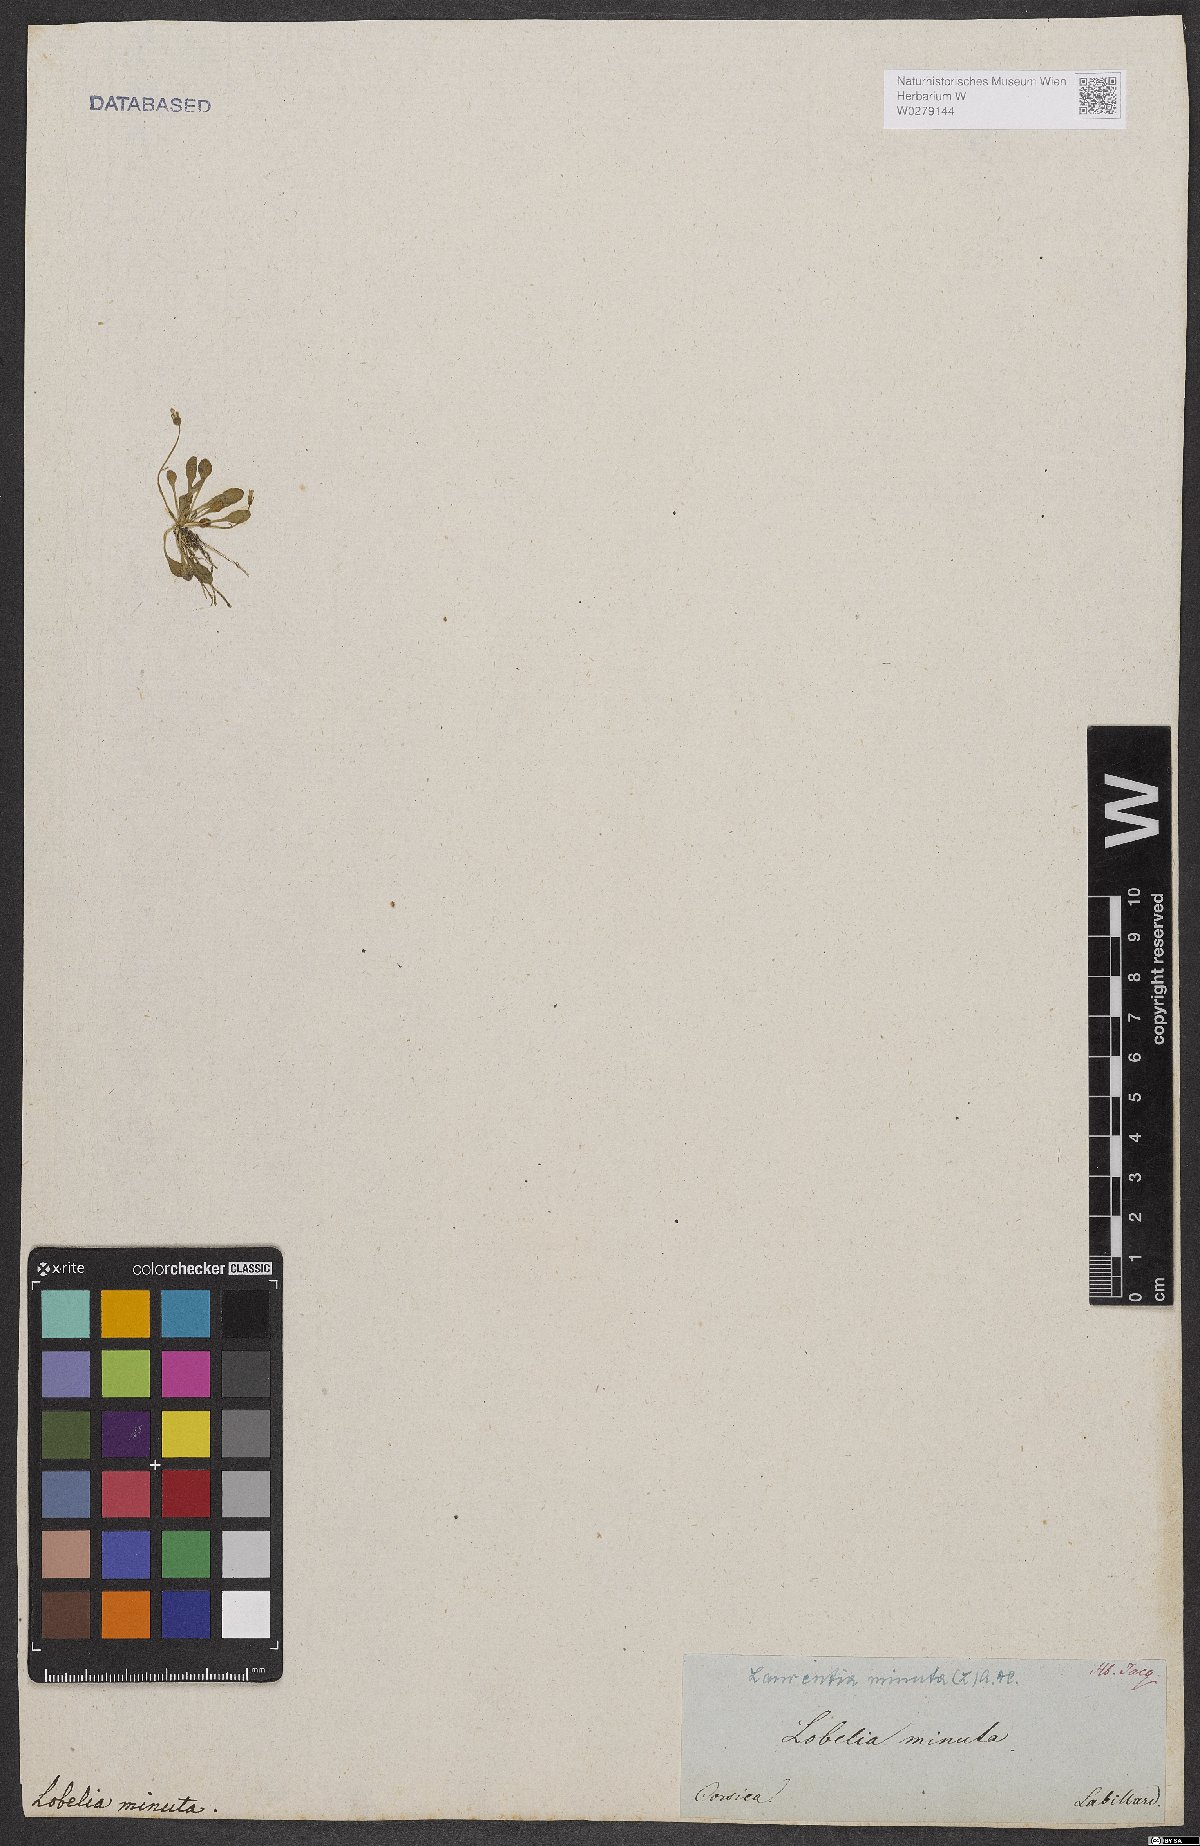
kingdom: Plantae
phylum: Tracheophyta
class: Magnoliopsida
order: Asterales
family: Campanulaceae
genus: Solenopsis
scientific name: Solenopsis minuta
